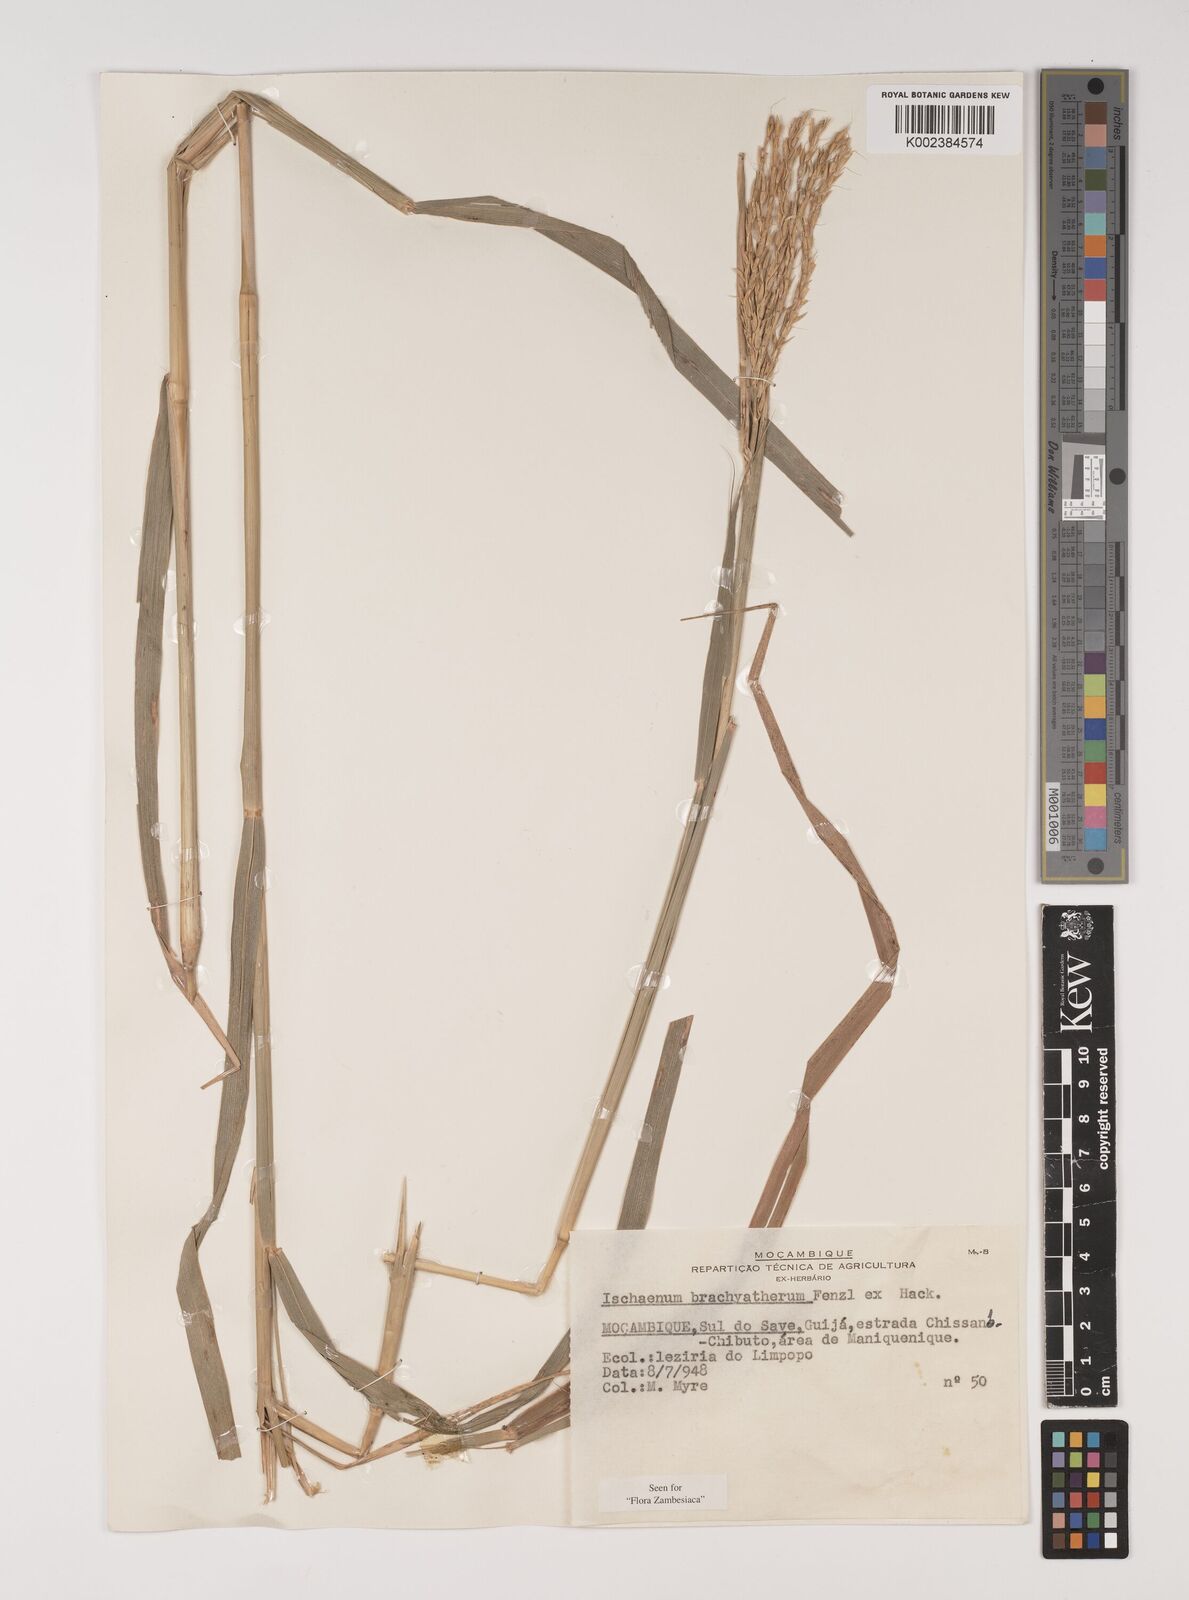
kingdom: Plantae
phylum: Tracheophyta
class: Liliopsida
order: Poales
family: Poaceae
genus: Ischaemum
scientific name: Ischaemum afrum
